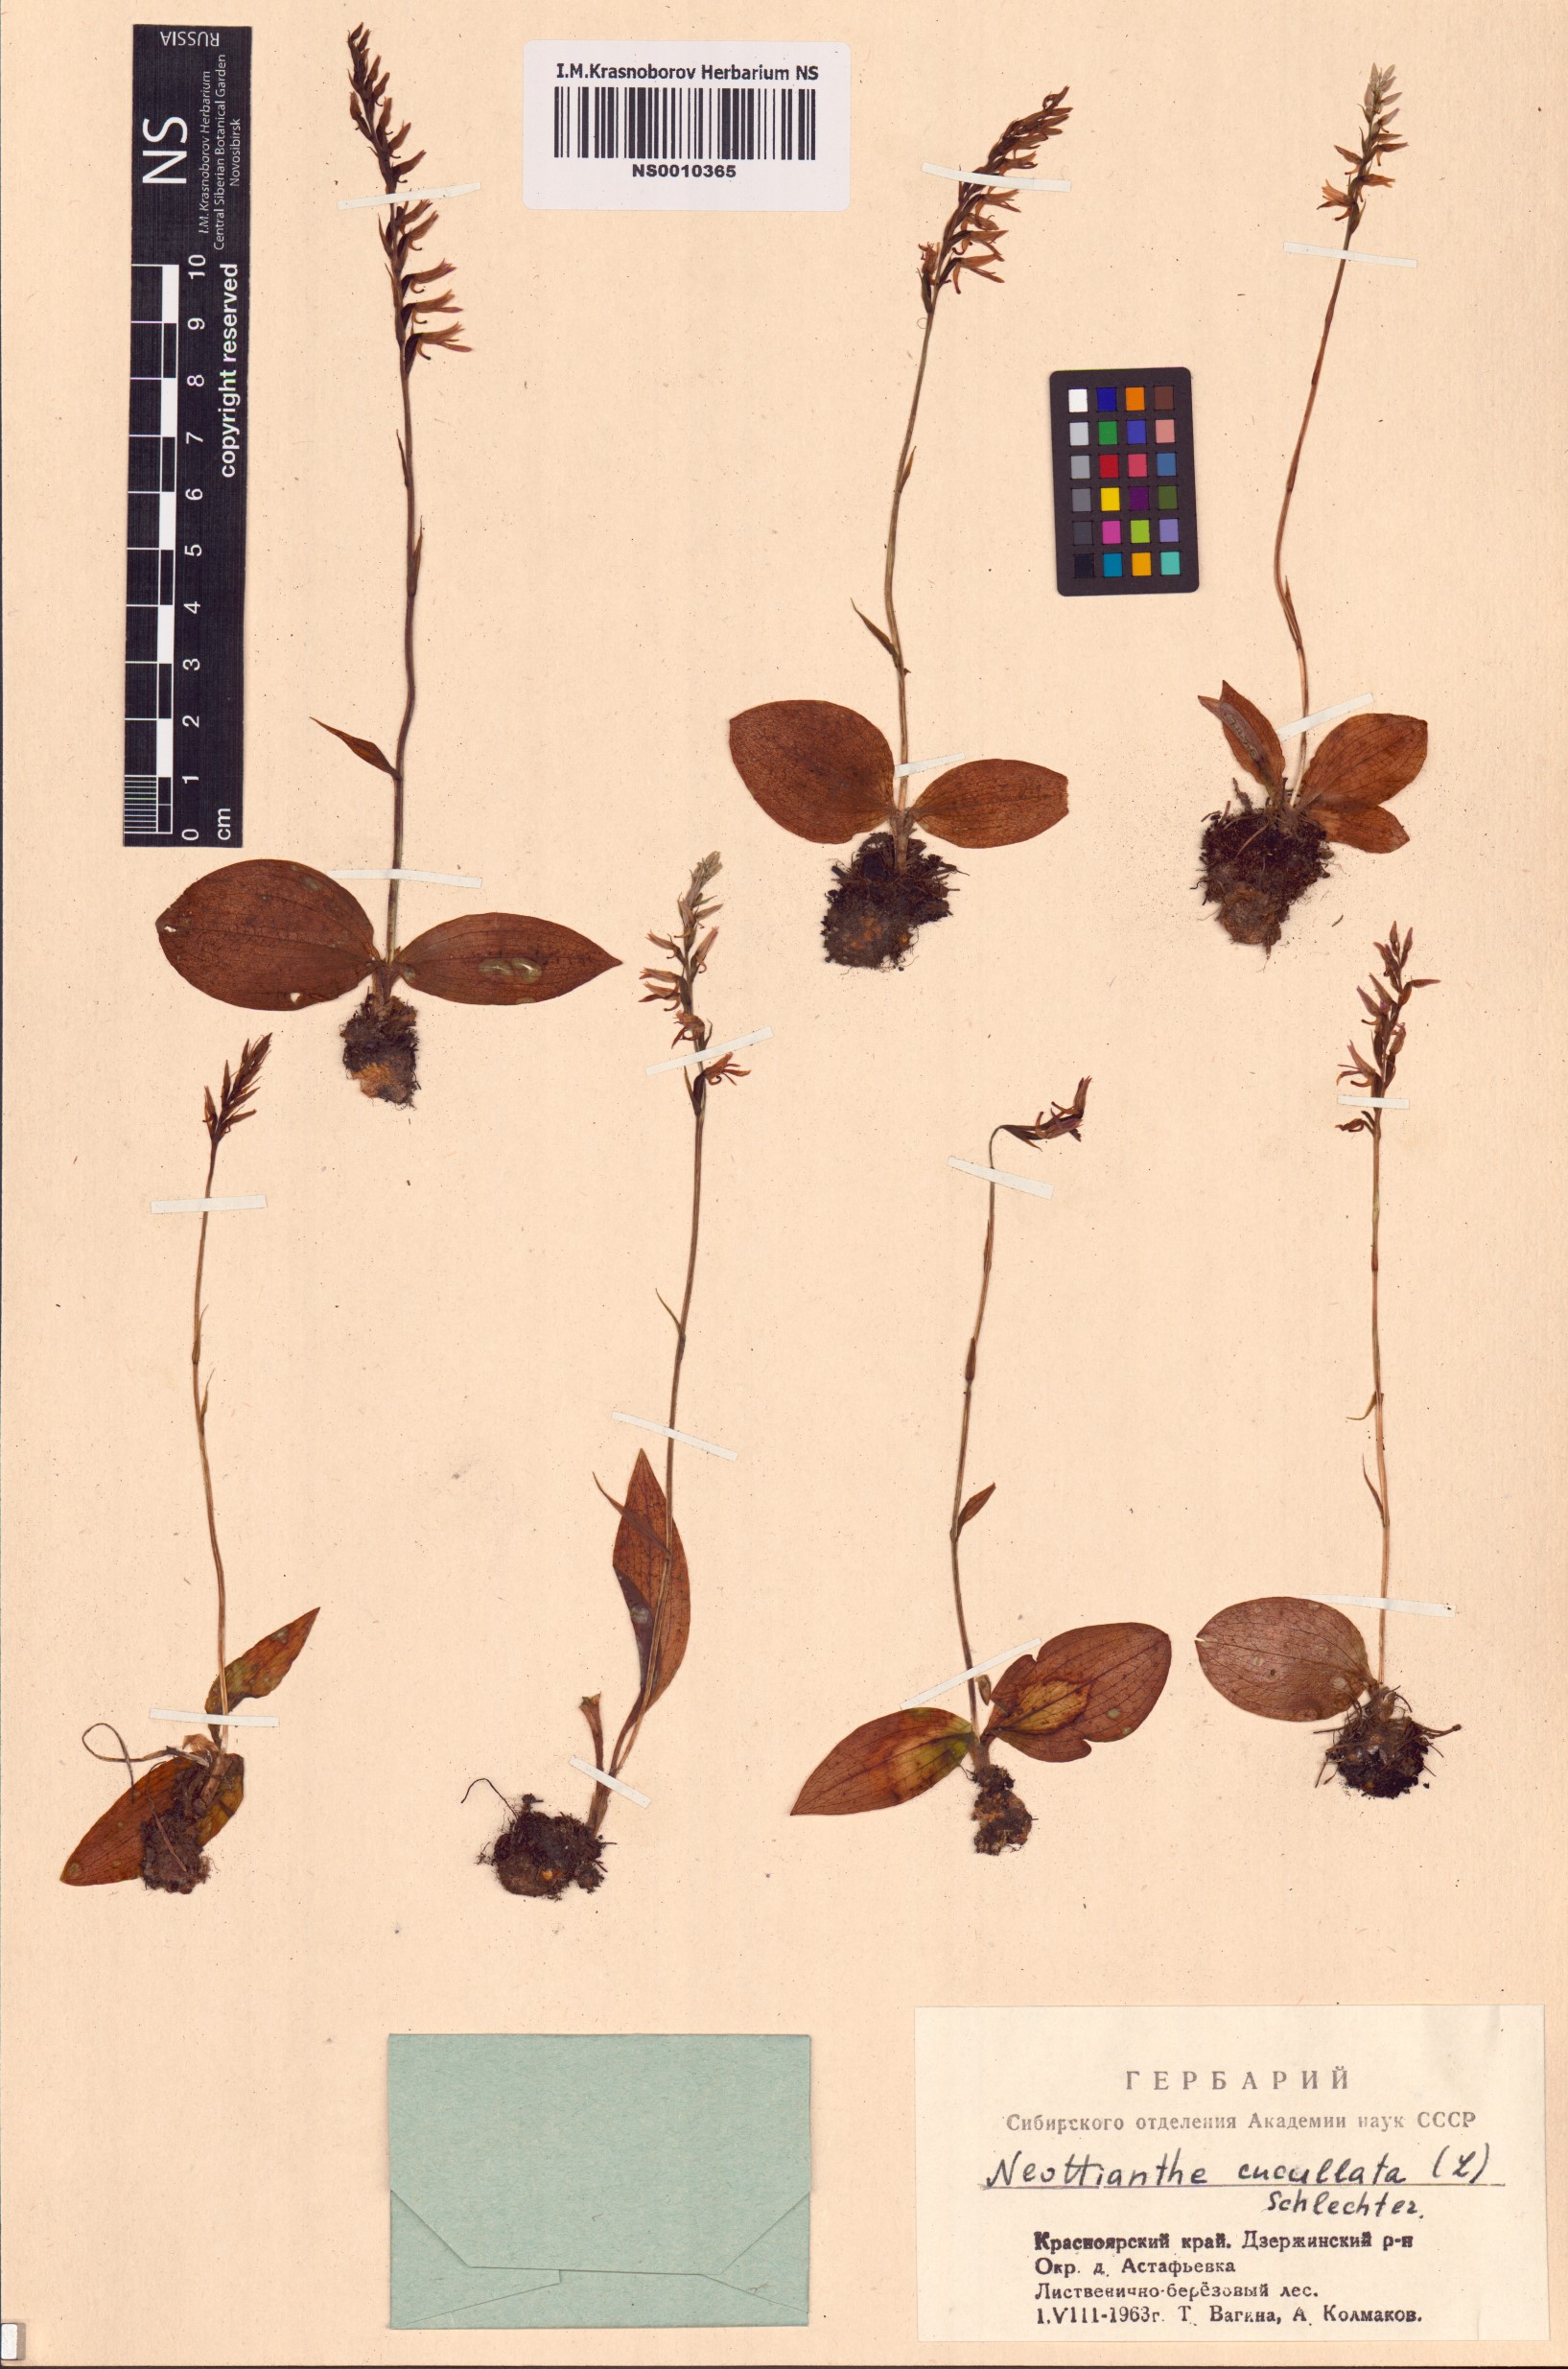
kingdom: Plantae
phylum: Tracheophyta
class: Liliopsida
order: Asparagales
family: Orchidaceae
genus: Hemipilia
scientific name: Hemipilia cucullata
